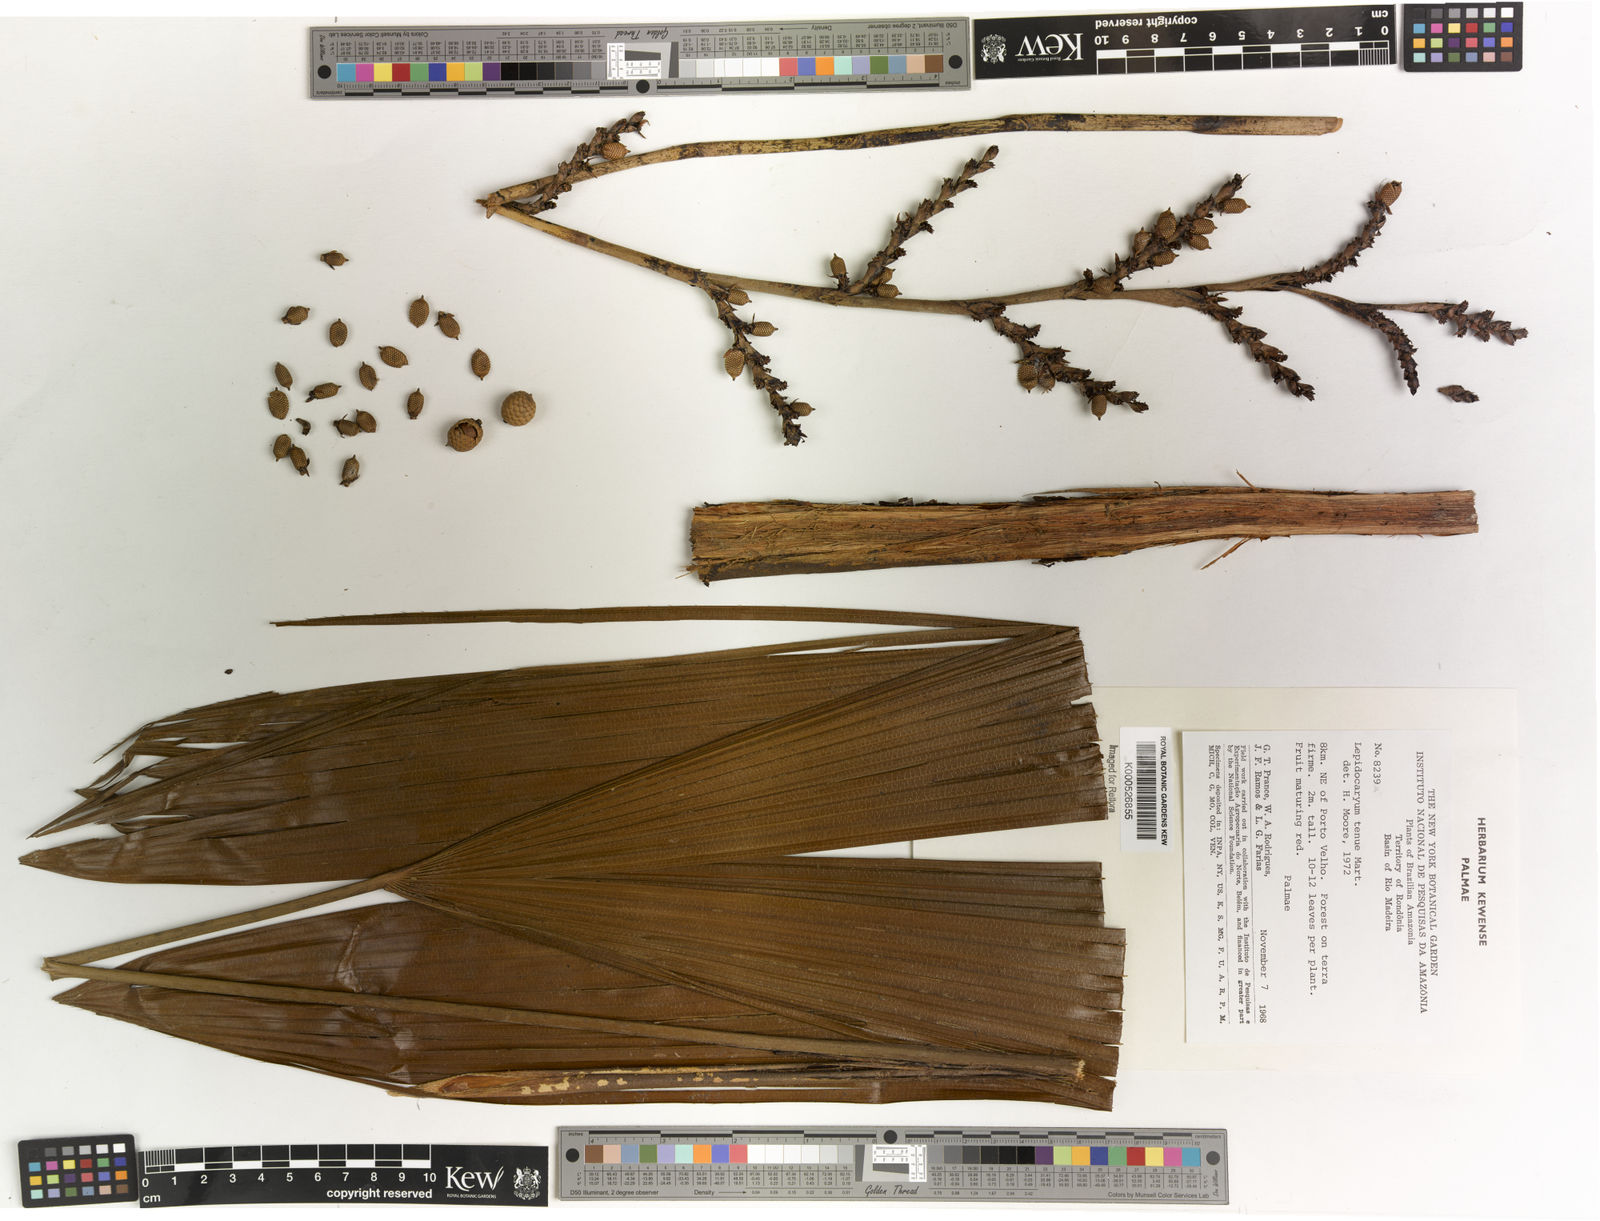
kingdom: Plantae
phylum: Tracheophyta
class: Liliopsida
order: Arecales
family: Arecaceae
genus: Lepidocaryum
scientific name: Lepidocaryum tenue
